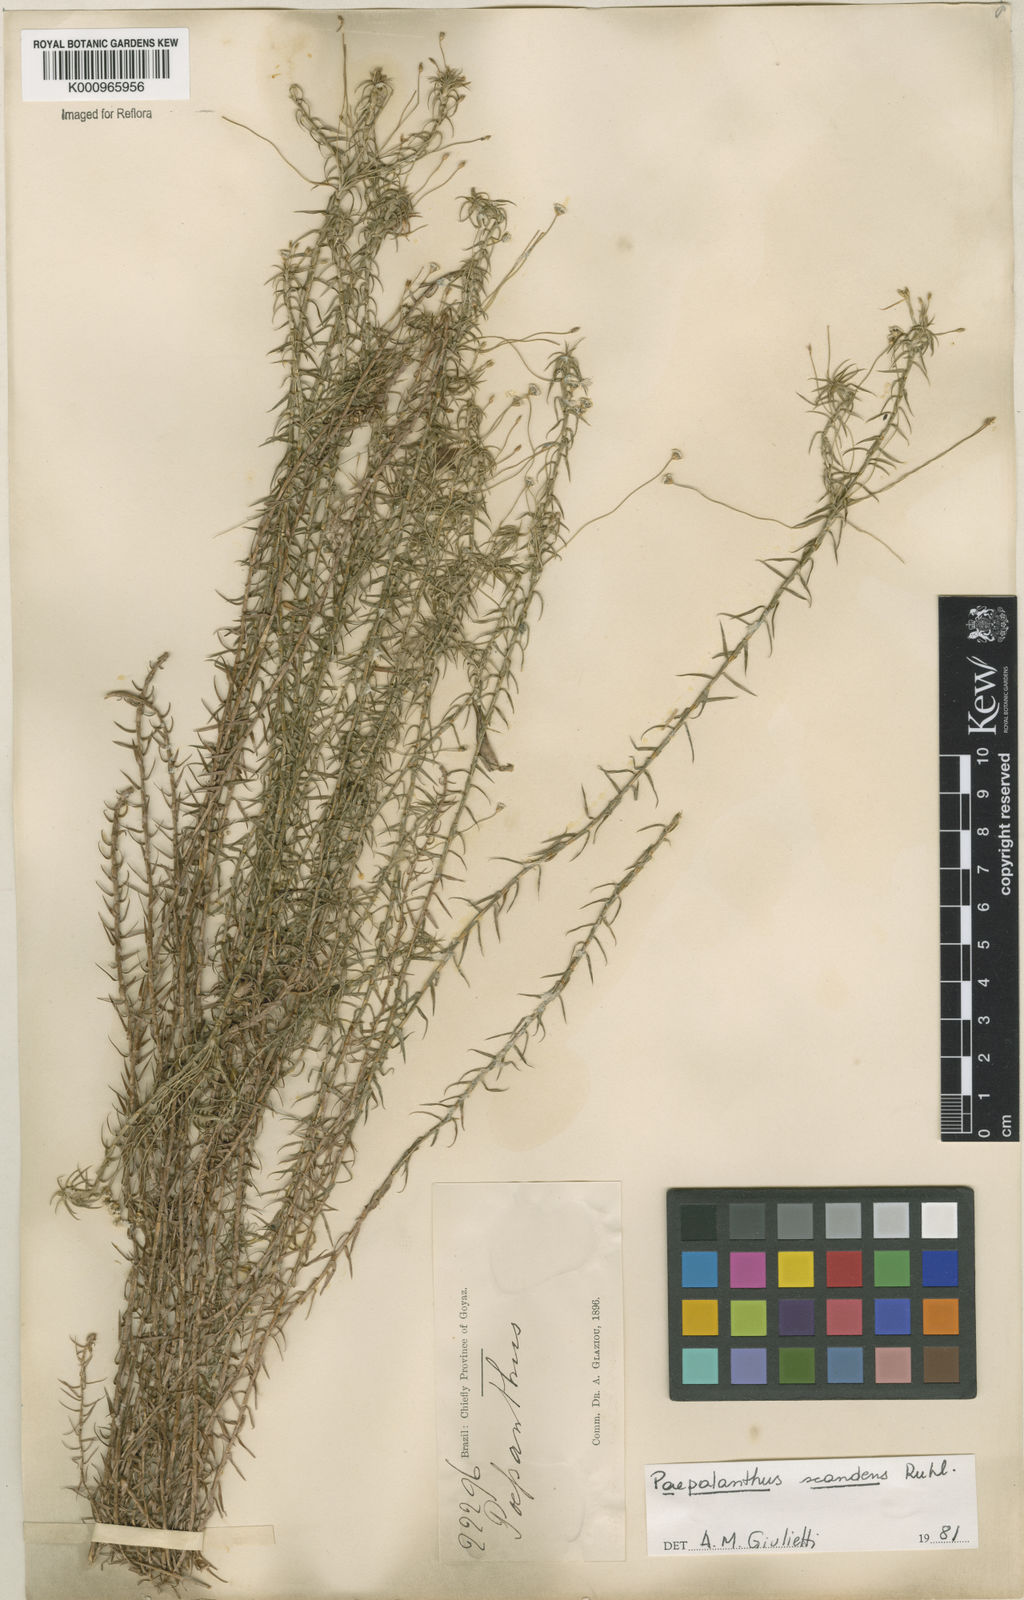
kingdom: Plantae
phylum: Tracheophyta
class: Liliopsida
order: Poales
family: Eriocaulaceae
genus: Paepalanthus
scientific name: Paepalanthus scandens
